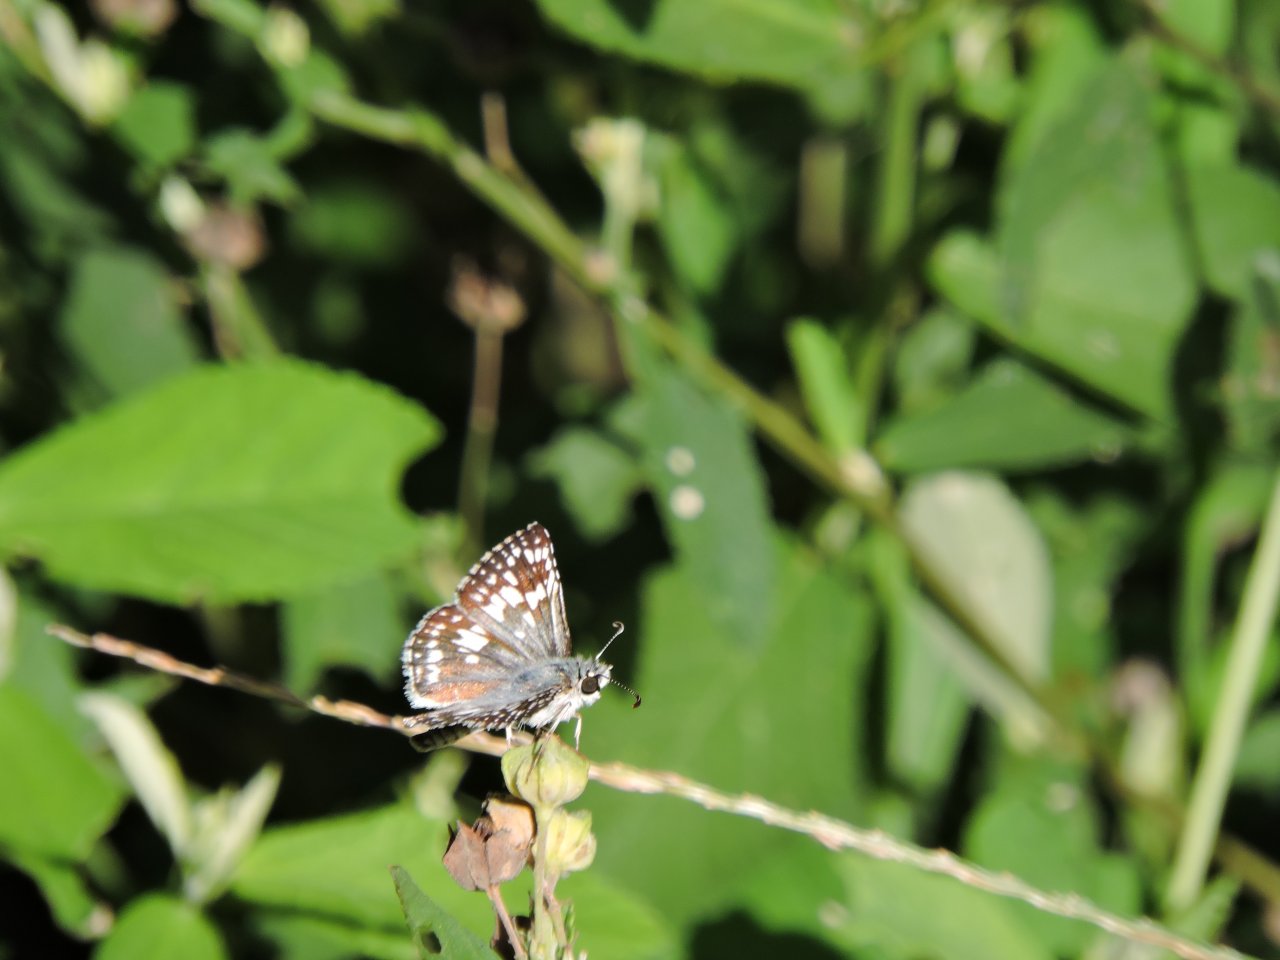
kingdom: Animalia
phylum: Arthropoda
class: Insecta
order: Lepidoptera
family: Hesperiidae
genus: Pyrgus
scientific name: Pyrgus
